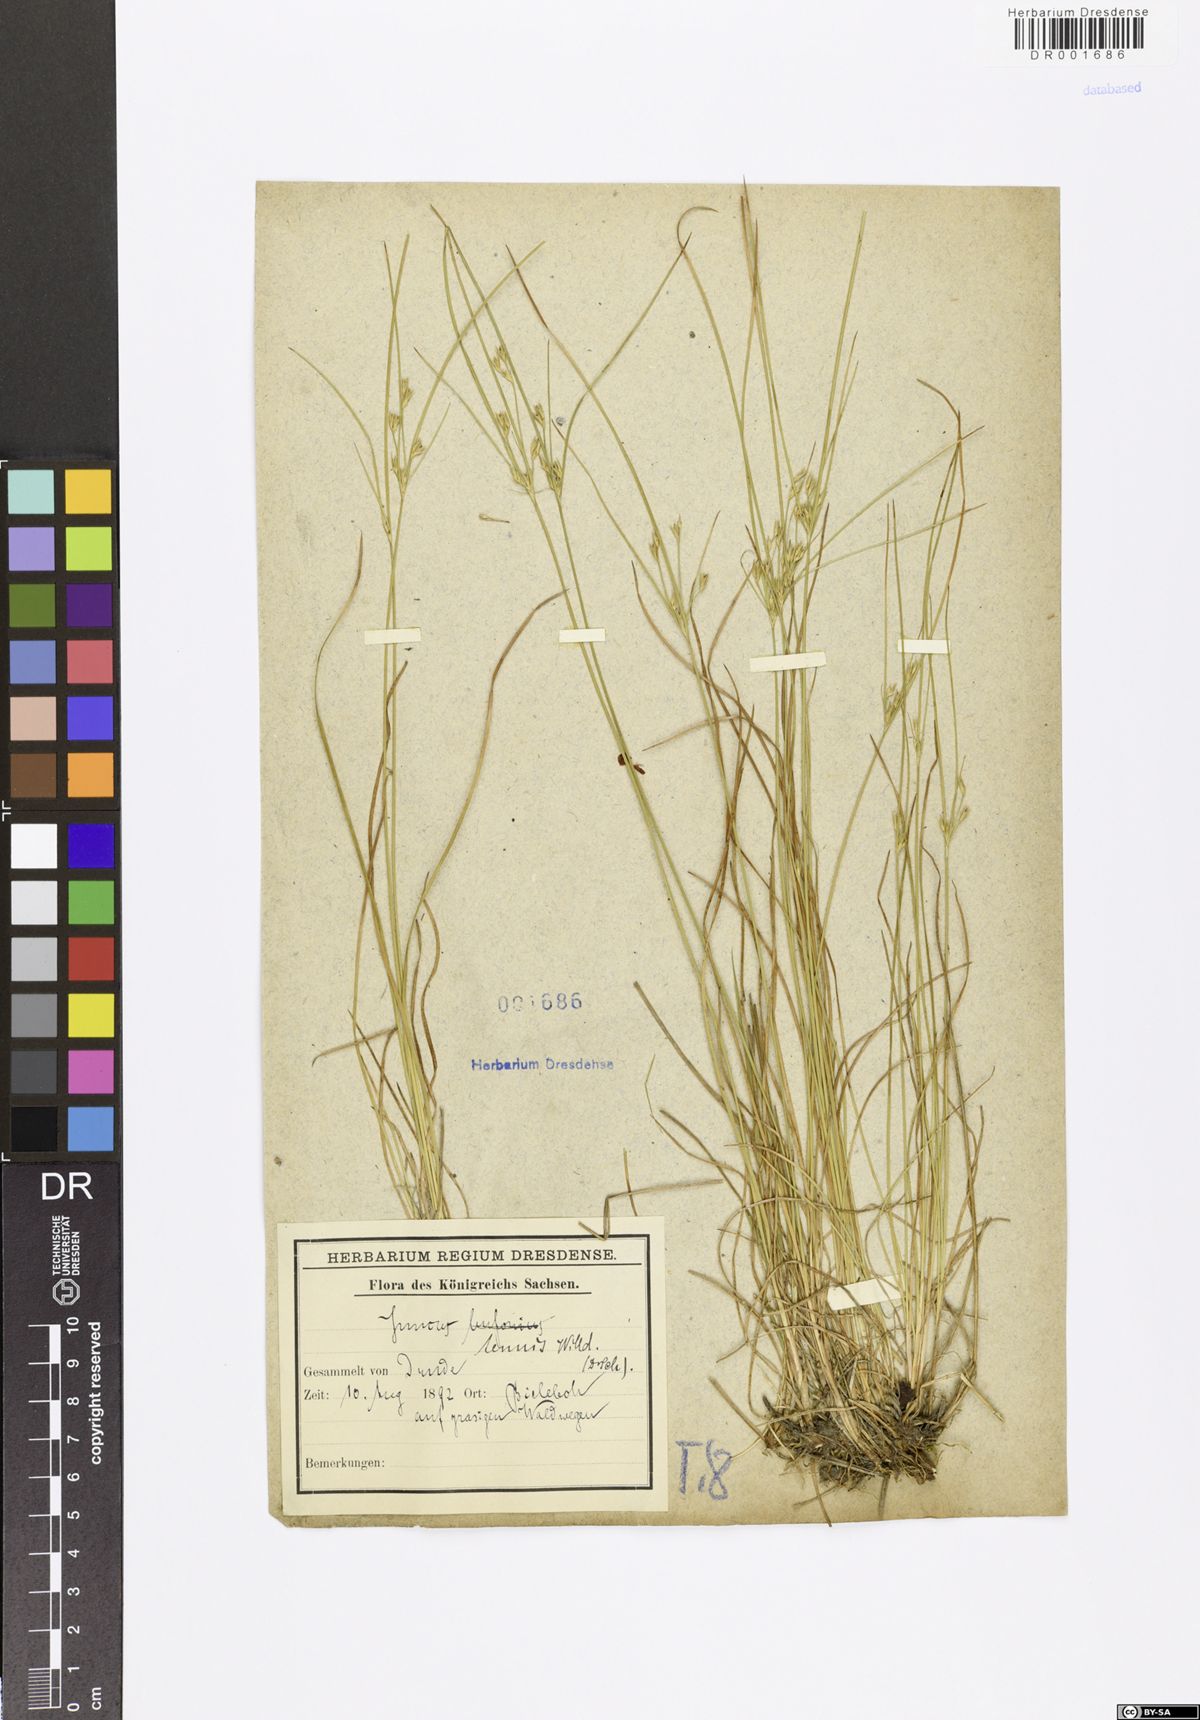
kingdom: Plantae
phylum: Tracheophyta
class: Liliopsida
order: Poales
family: Juncaceae
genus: Juncus
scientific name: Juncus tenuis
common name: Slender rush
